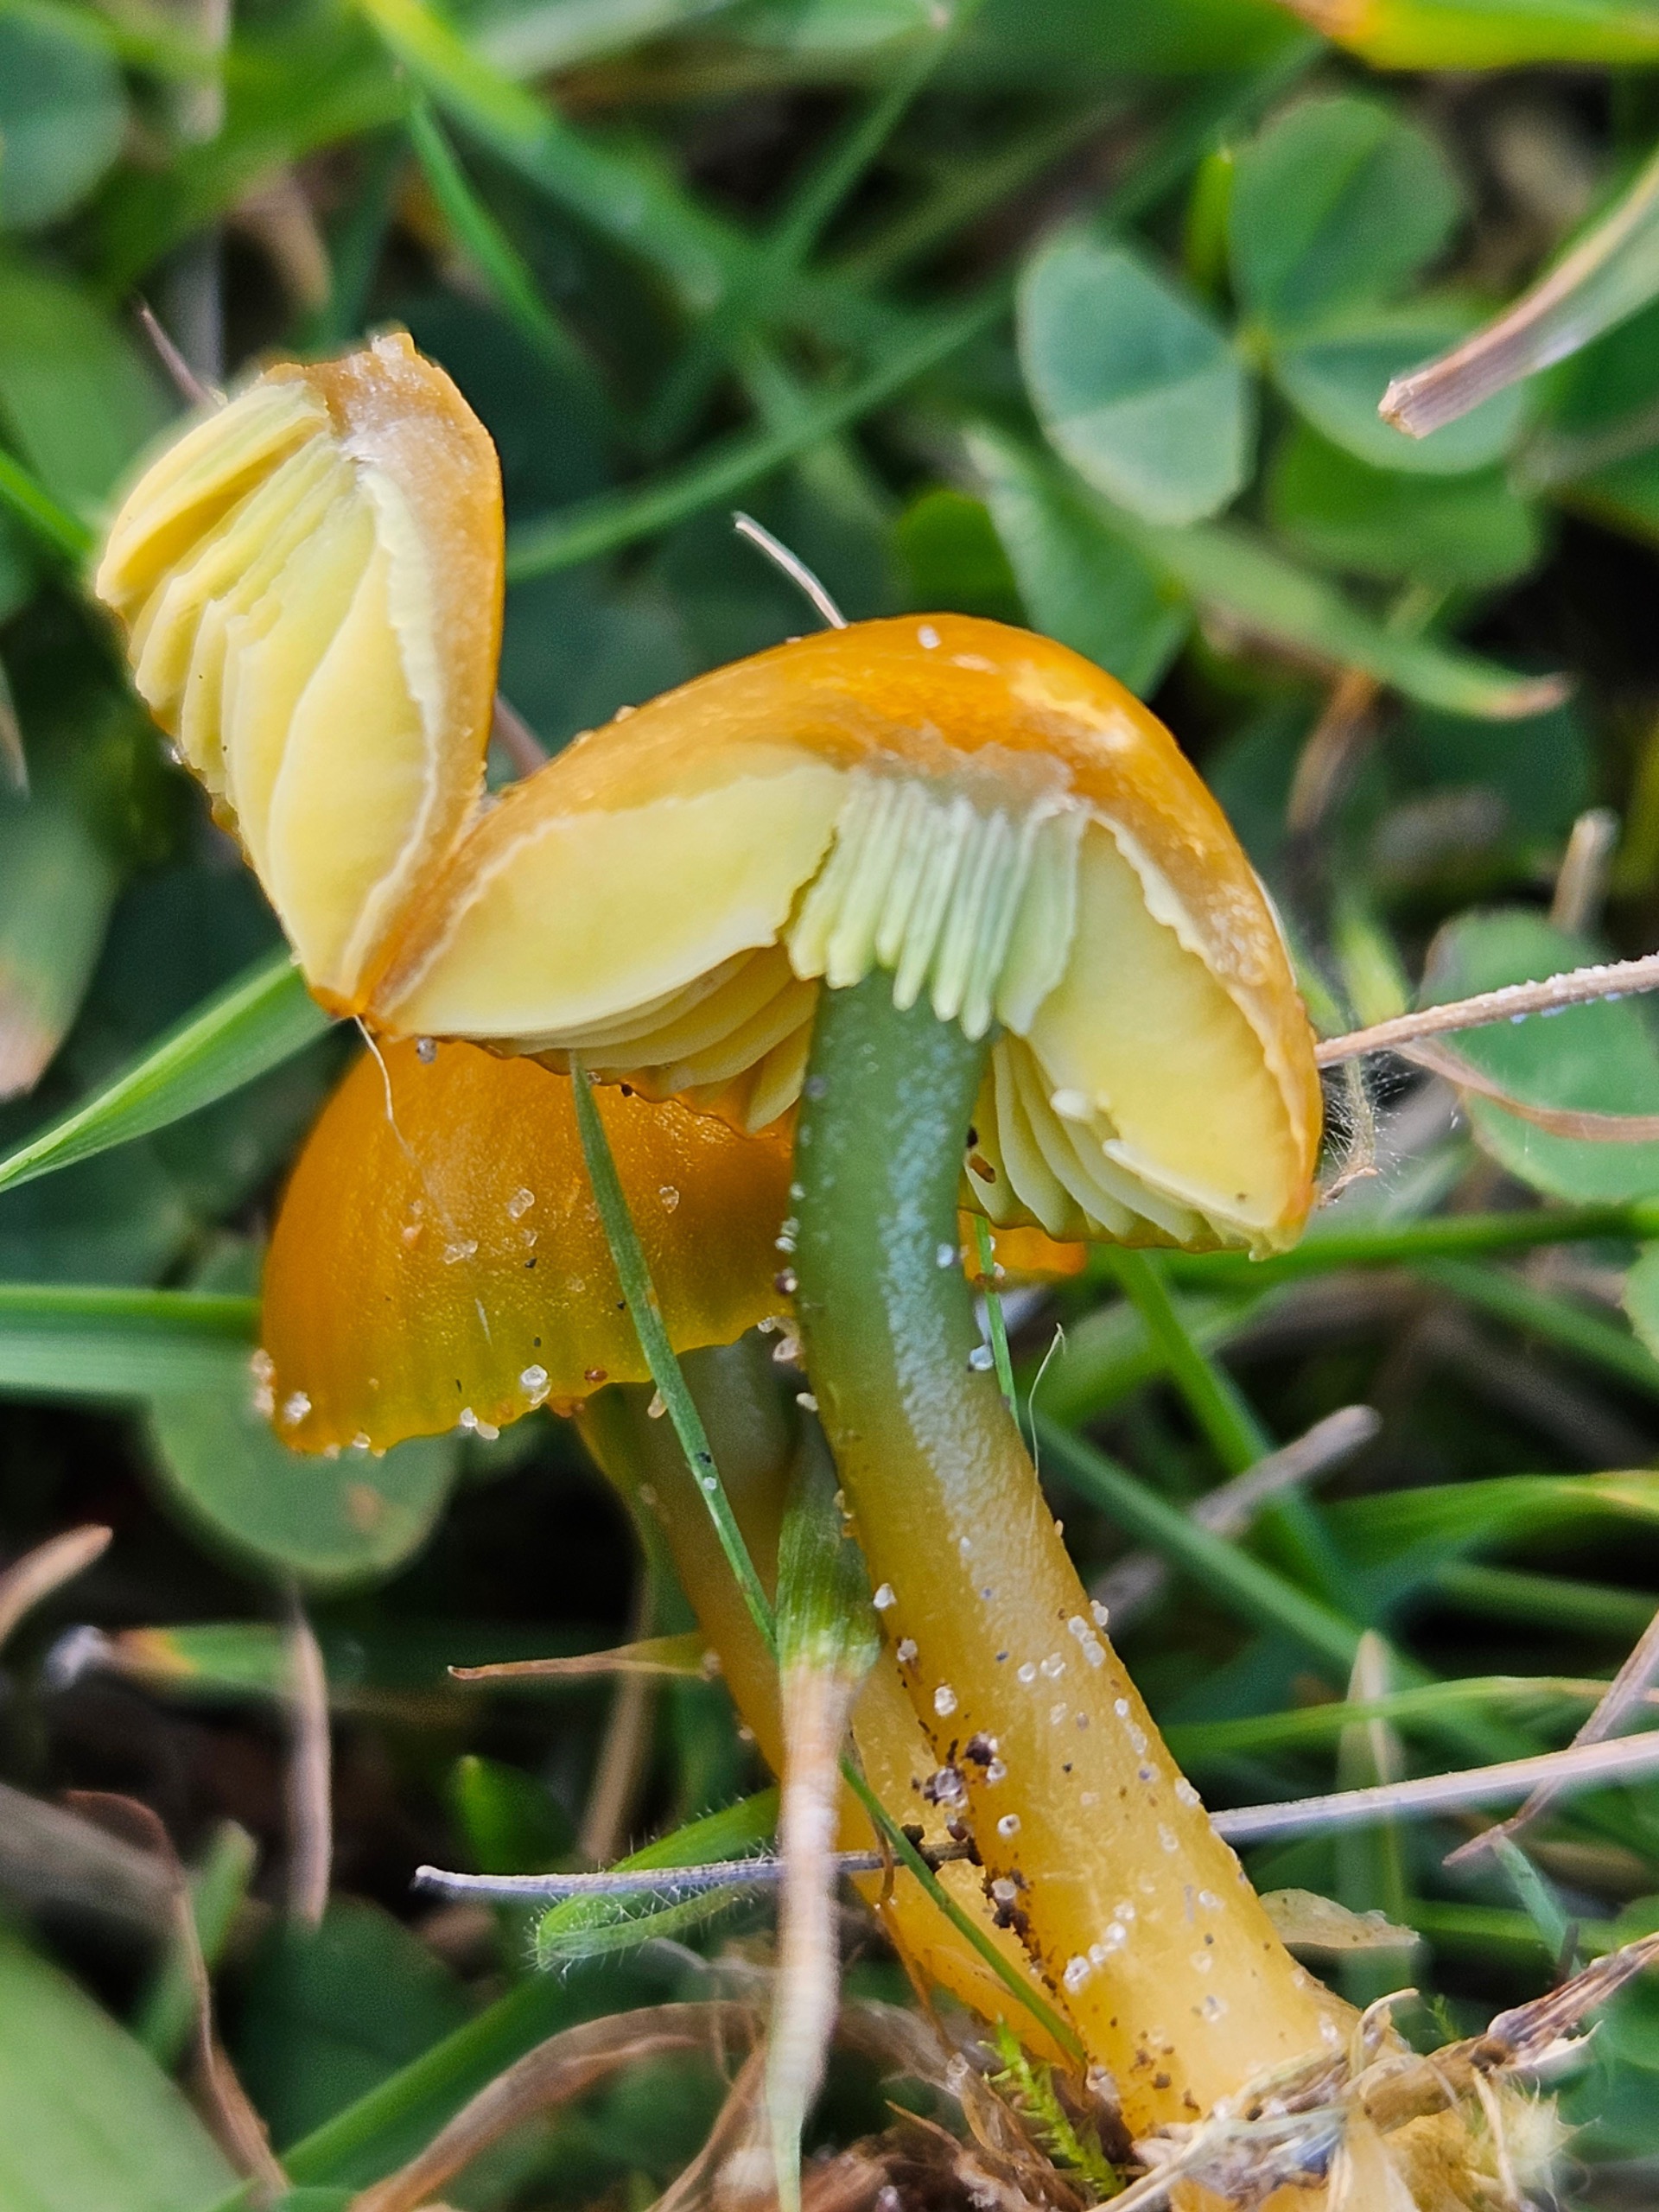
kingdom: Fungi
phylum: Basidiomycota
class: Agaricomycetes
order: Agaricales
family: Hygrophoraceae
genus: Gliophorus
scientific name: Gliophorus psittacinus
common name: Papegøje-vokshat
